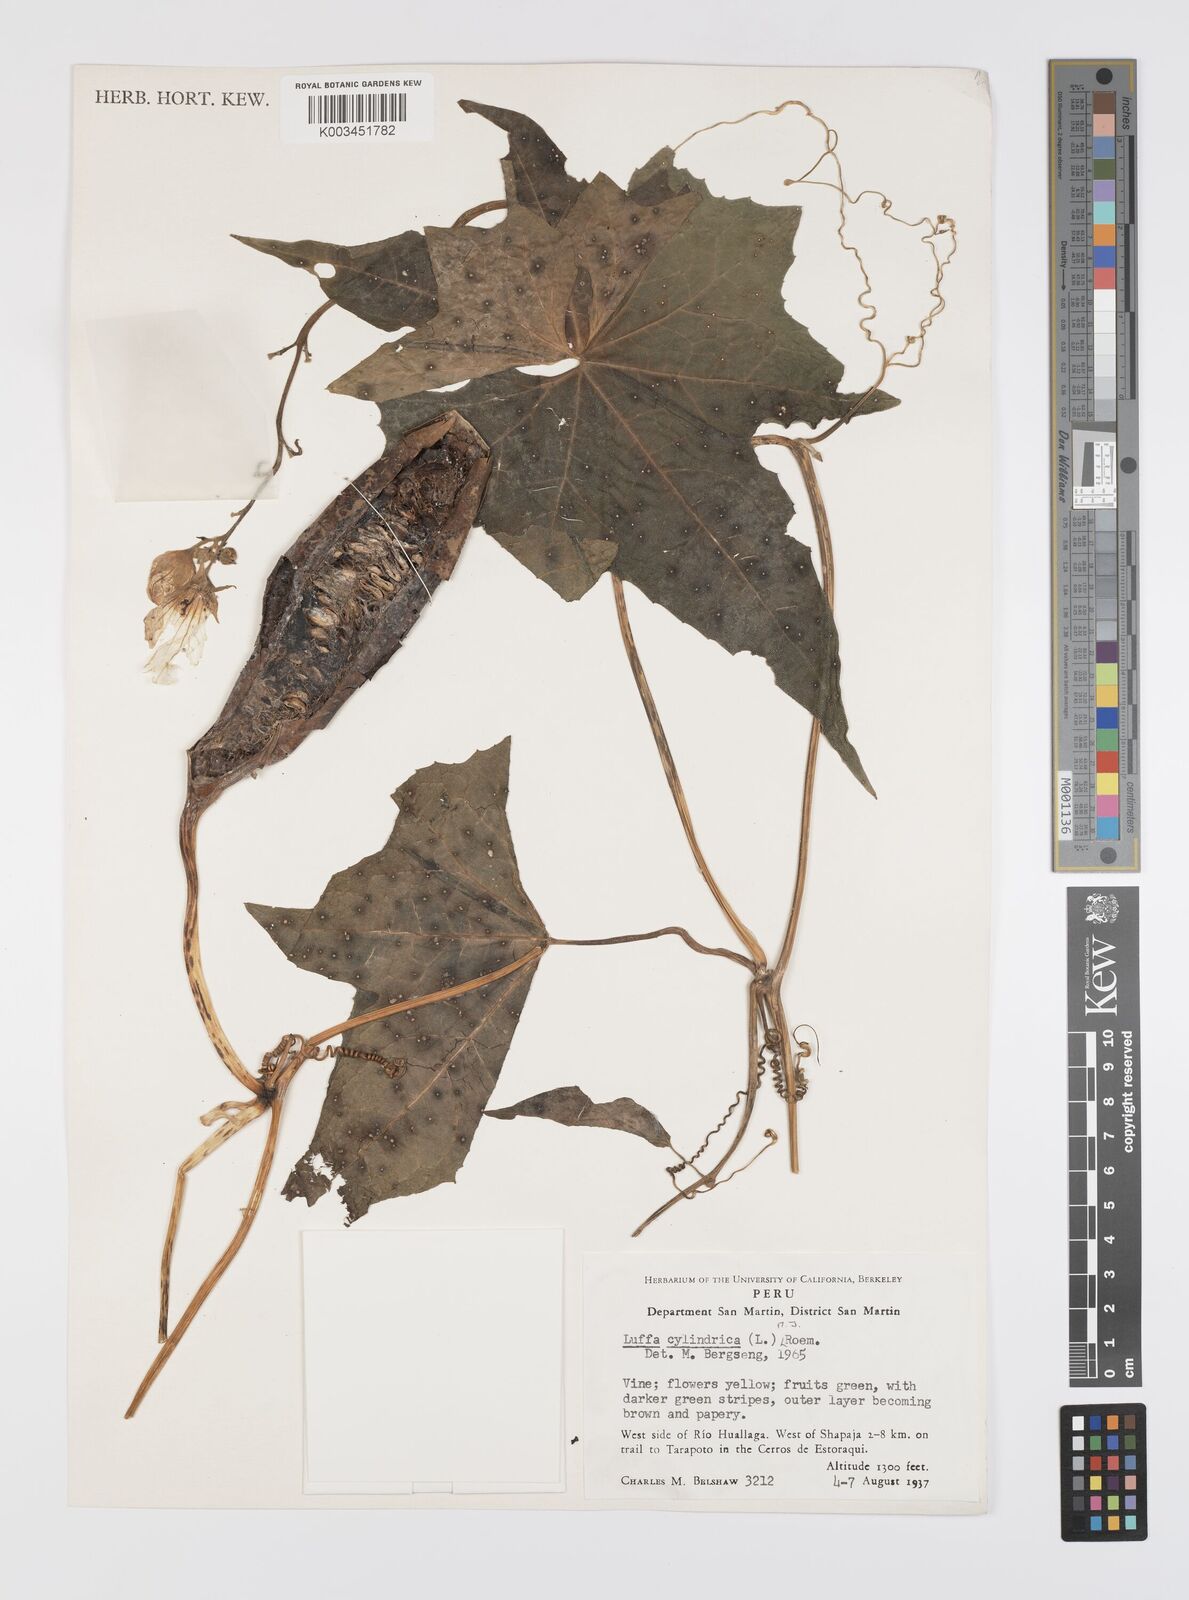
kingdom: Plantae
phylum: Tracheophyta
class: Magnoliopsida
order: Cucurbitales
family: Cucurbitaceae
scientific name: Cucurbitaceae
